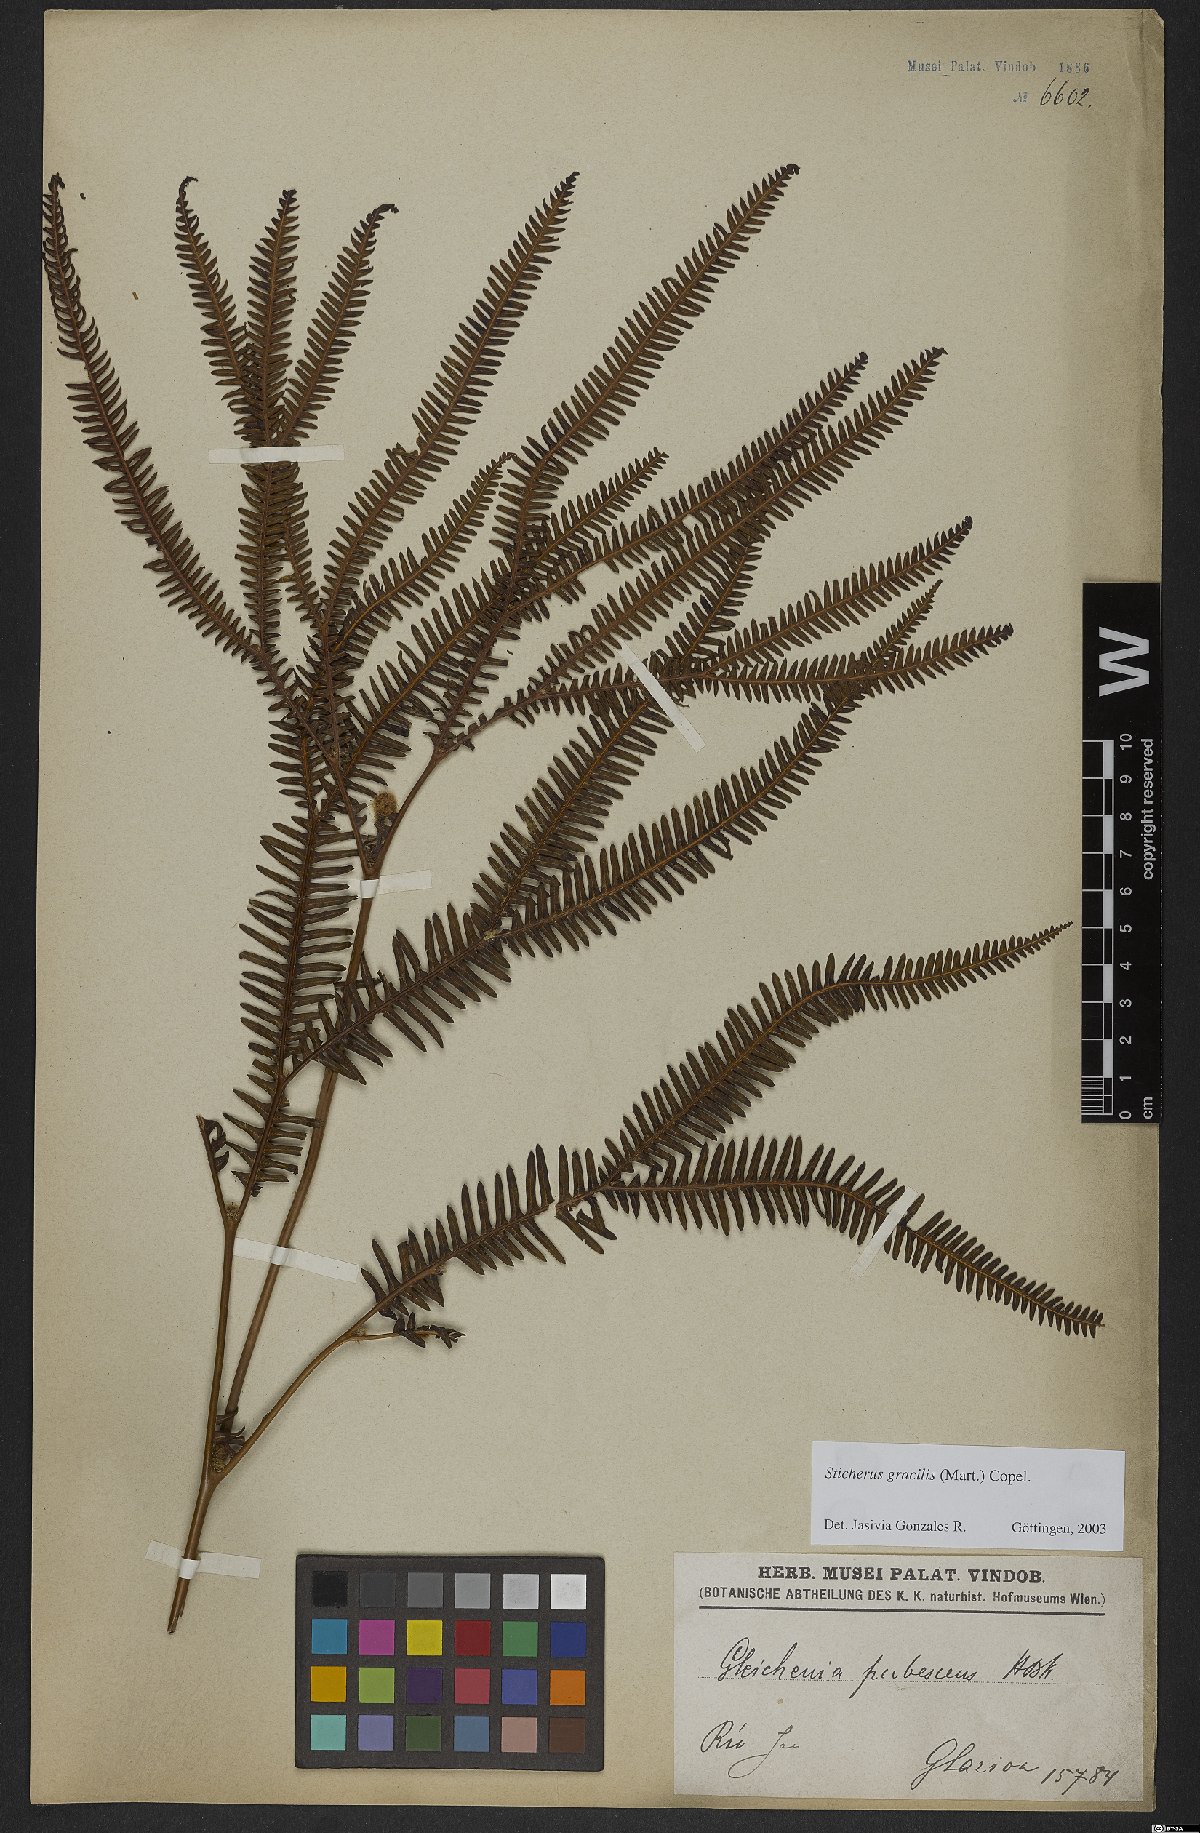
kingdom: Plantae
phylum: Tracheophyta
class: Polypodiopsida
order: Gleicheniales
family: Gleicheniaceae
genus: Sticherus
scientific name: Sticherus gracilis
